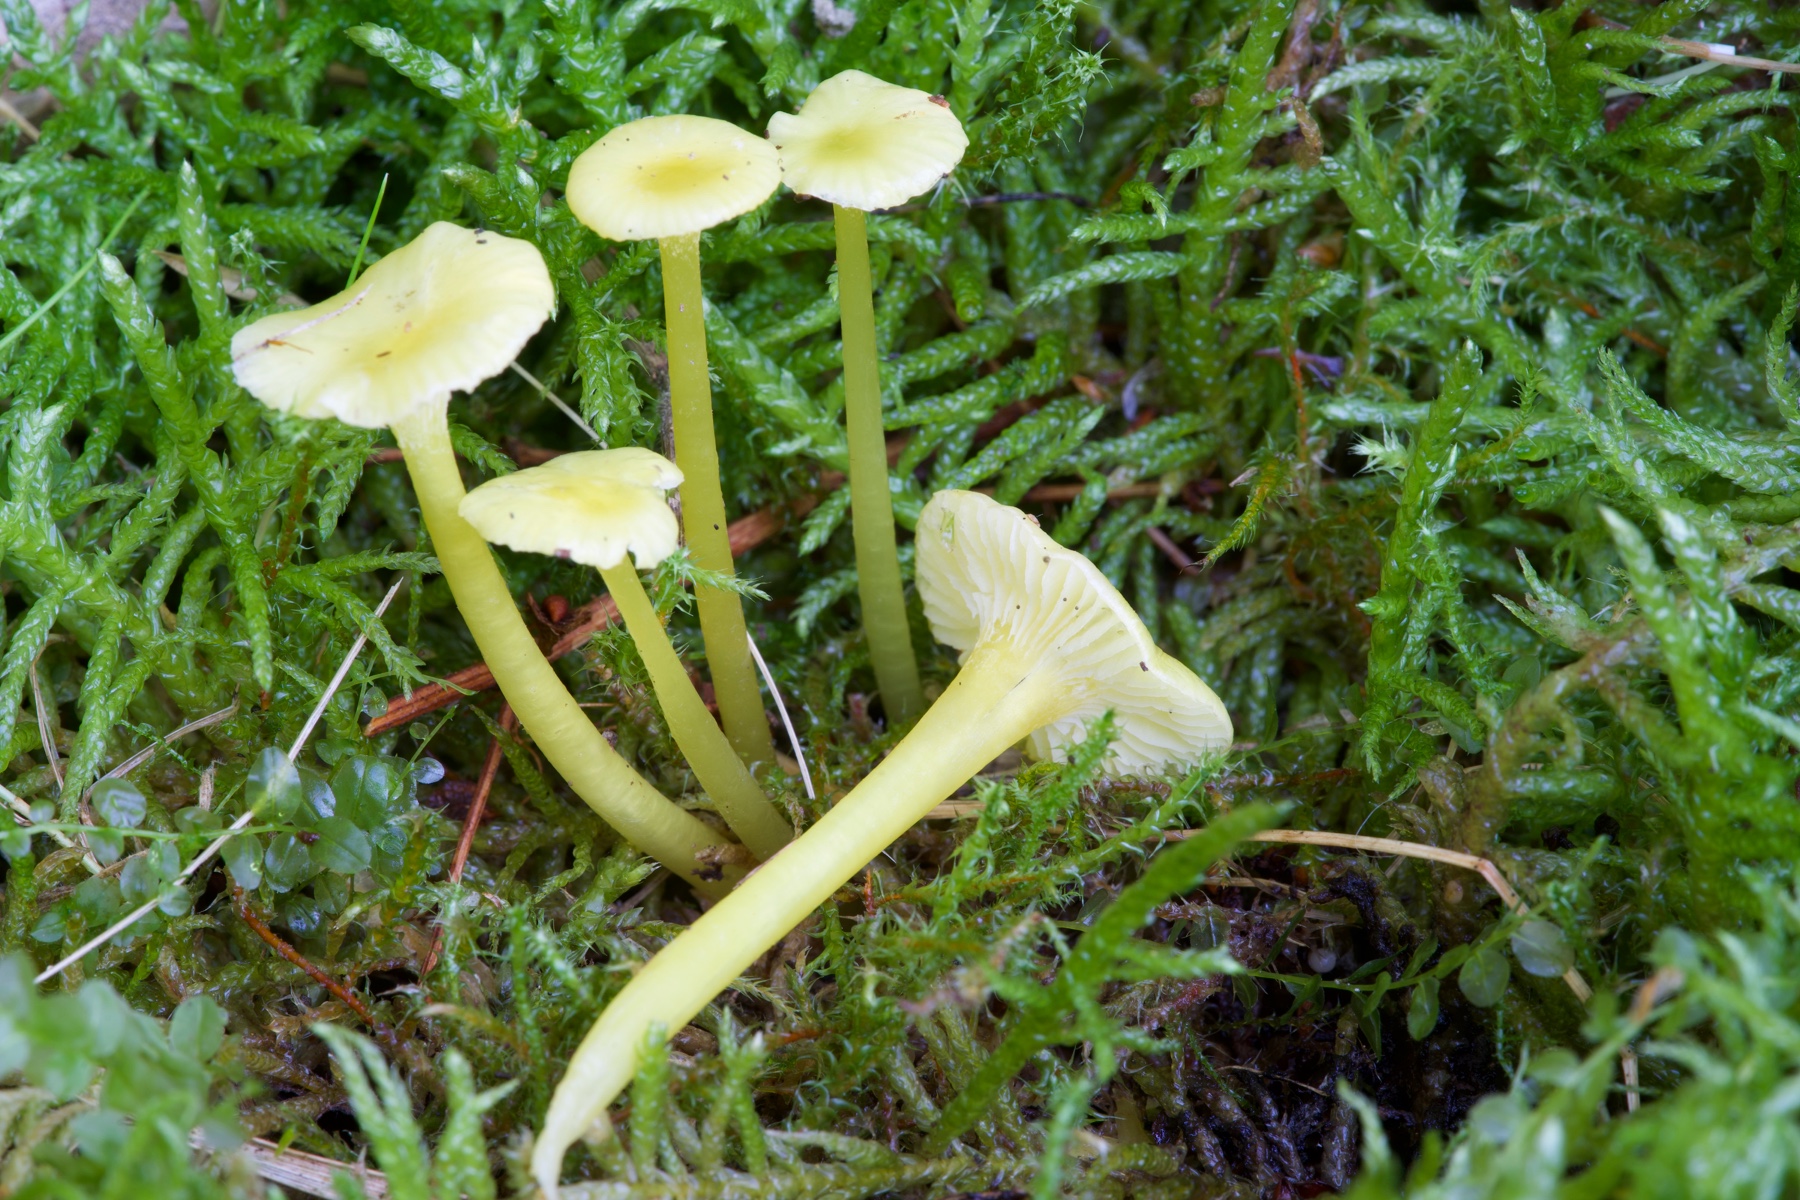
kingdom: Fungi
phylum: Basidiomycota
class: Agaricomycetes
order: Agaricales
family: Hygrophoraceae
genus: Hygrocybe
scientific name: Hygrocybe glutinipes
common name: slimstokket vokshat
